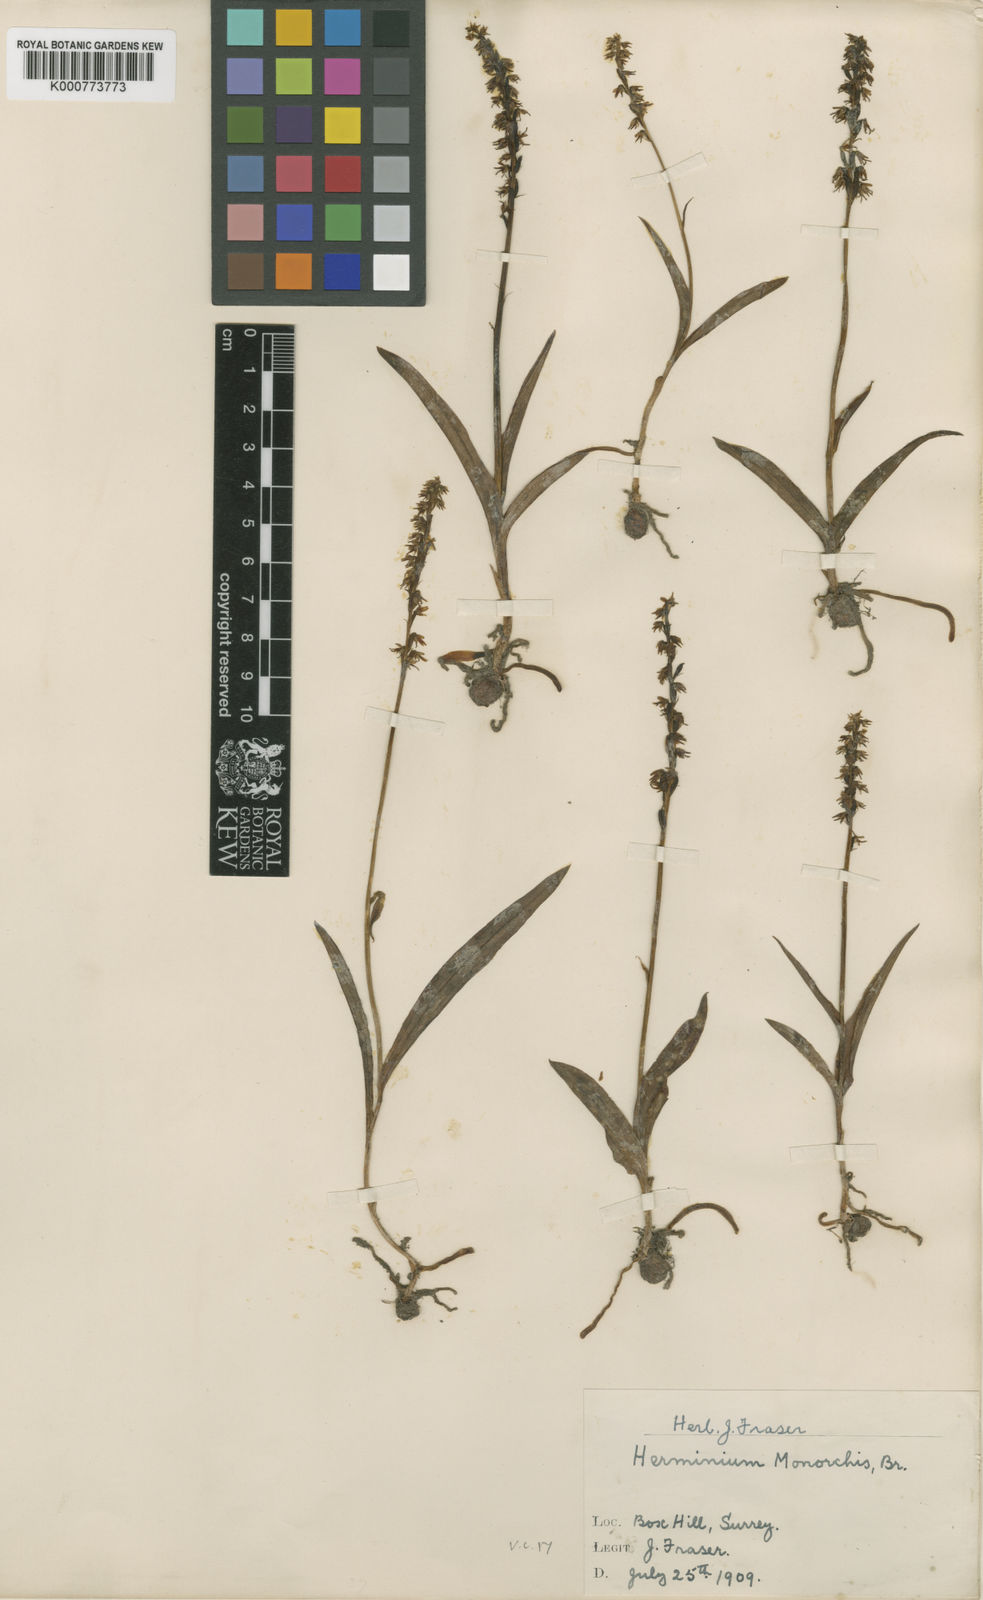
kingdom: Plantae
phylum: Tracheophyta
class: Liliopsida
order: Asparagales
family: Orchidaceae
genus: Herminium
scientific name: Herminium monorchis
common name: Musk orchid
